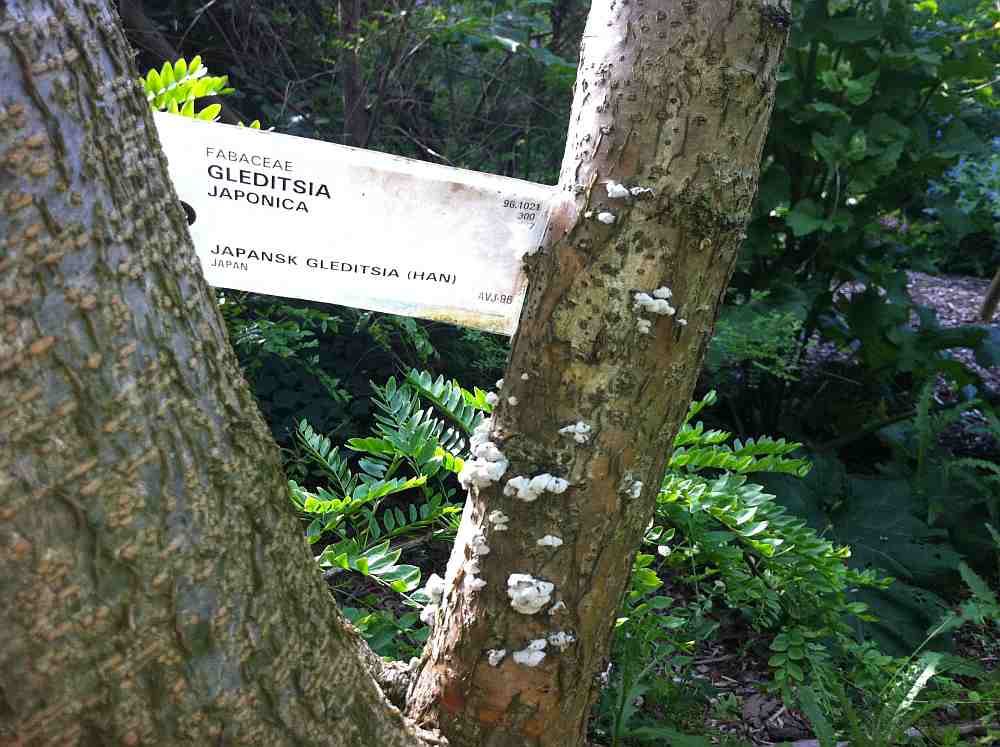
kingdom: Fungi
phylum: Basidiomycota
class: Agaricomycetes
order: Agaricales
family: Cyphellaceae
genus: Chondrostereum
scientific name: Chondrostereum purpureum
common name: purpurlædersvamp
